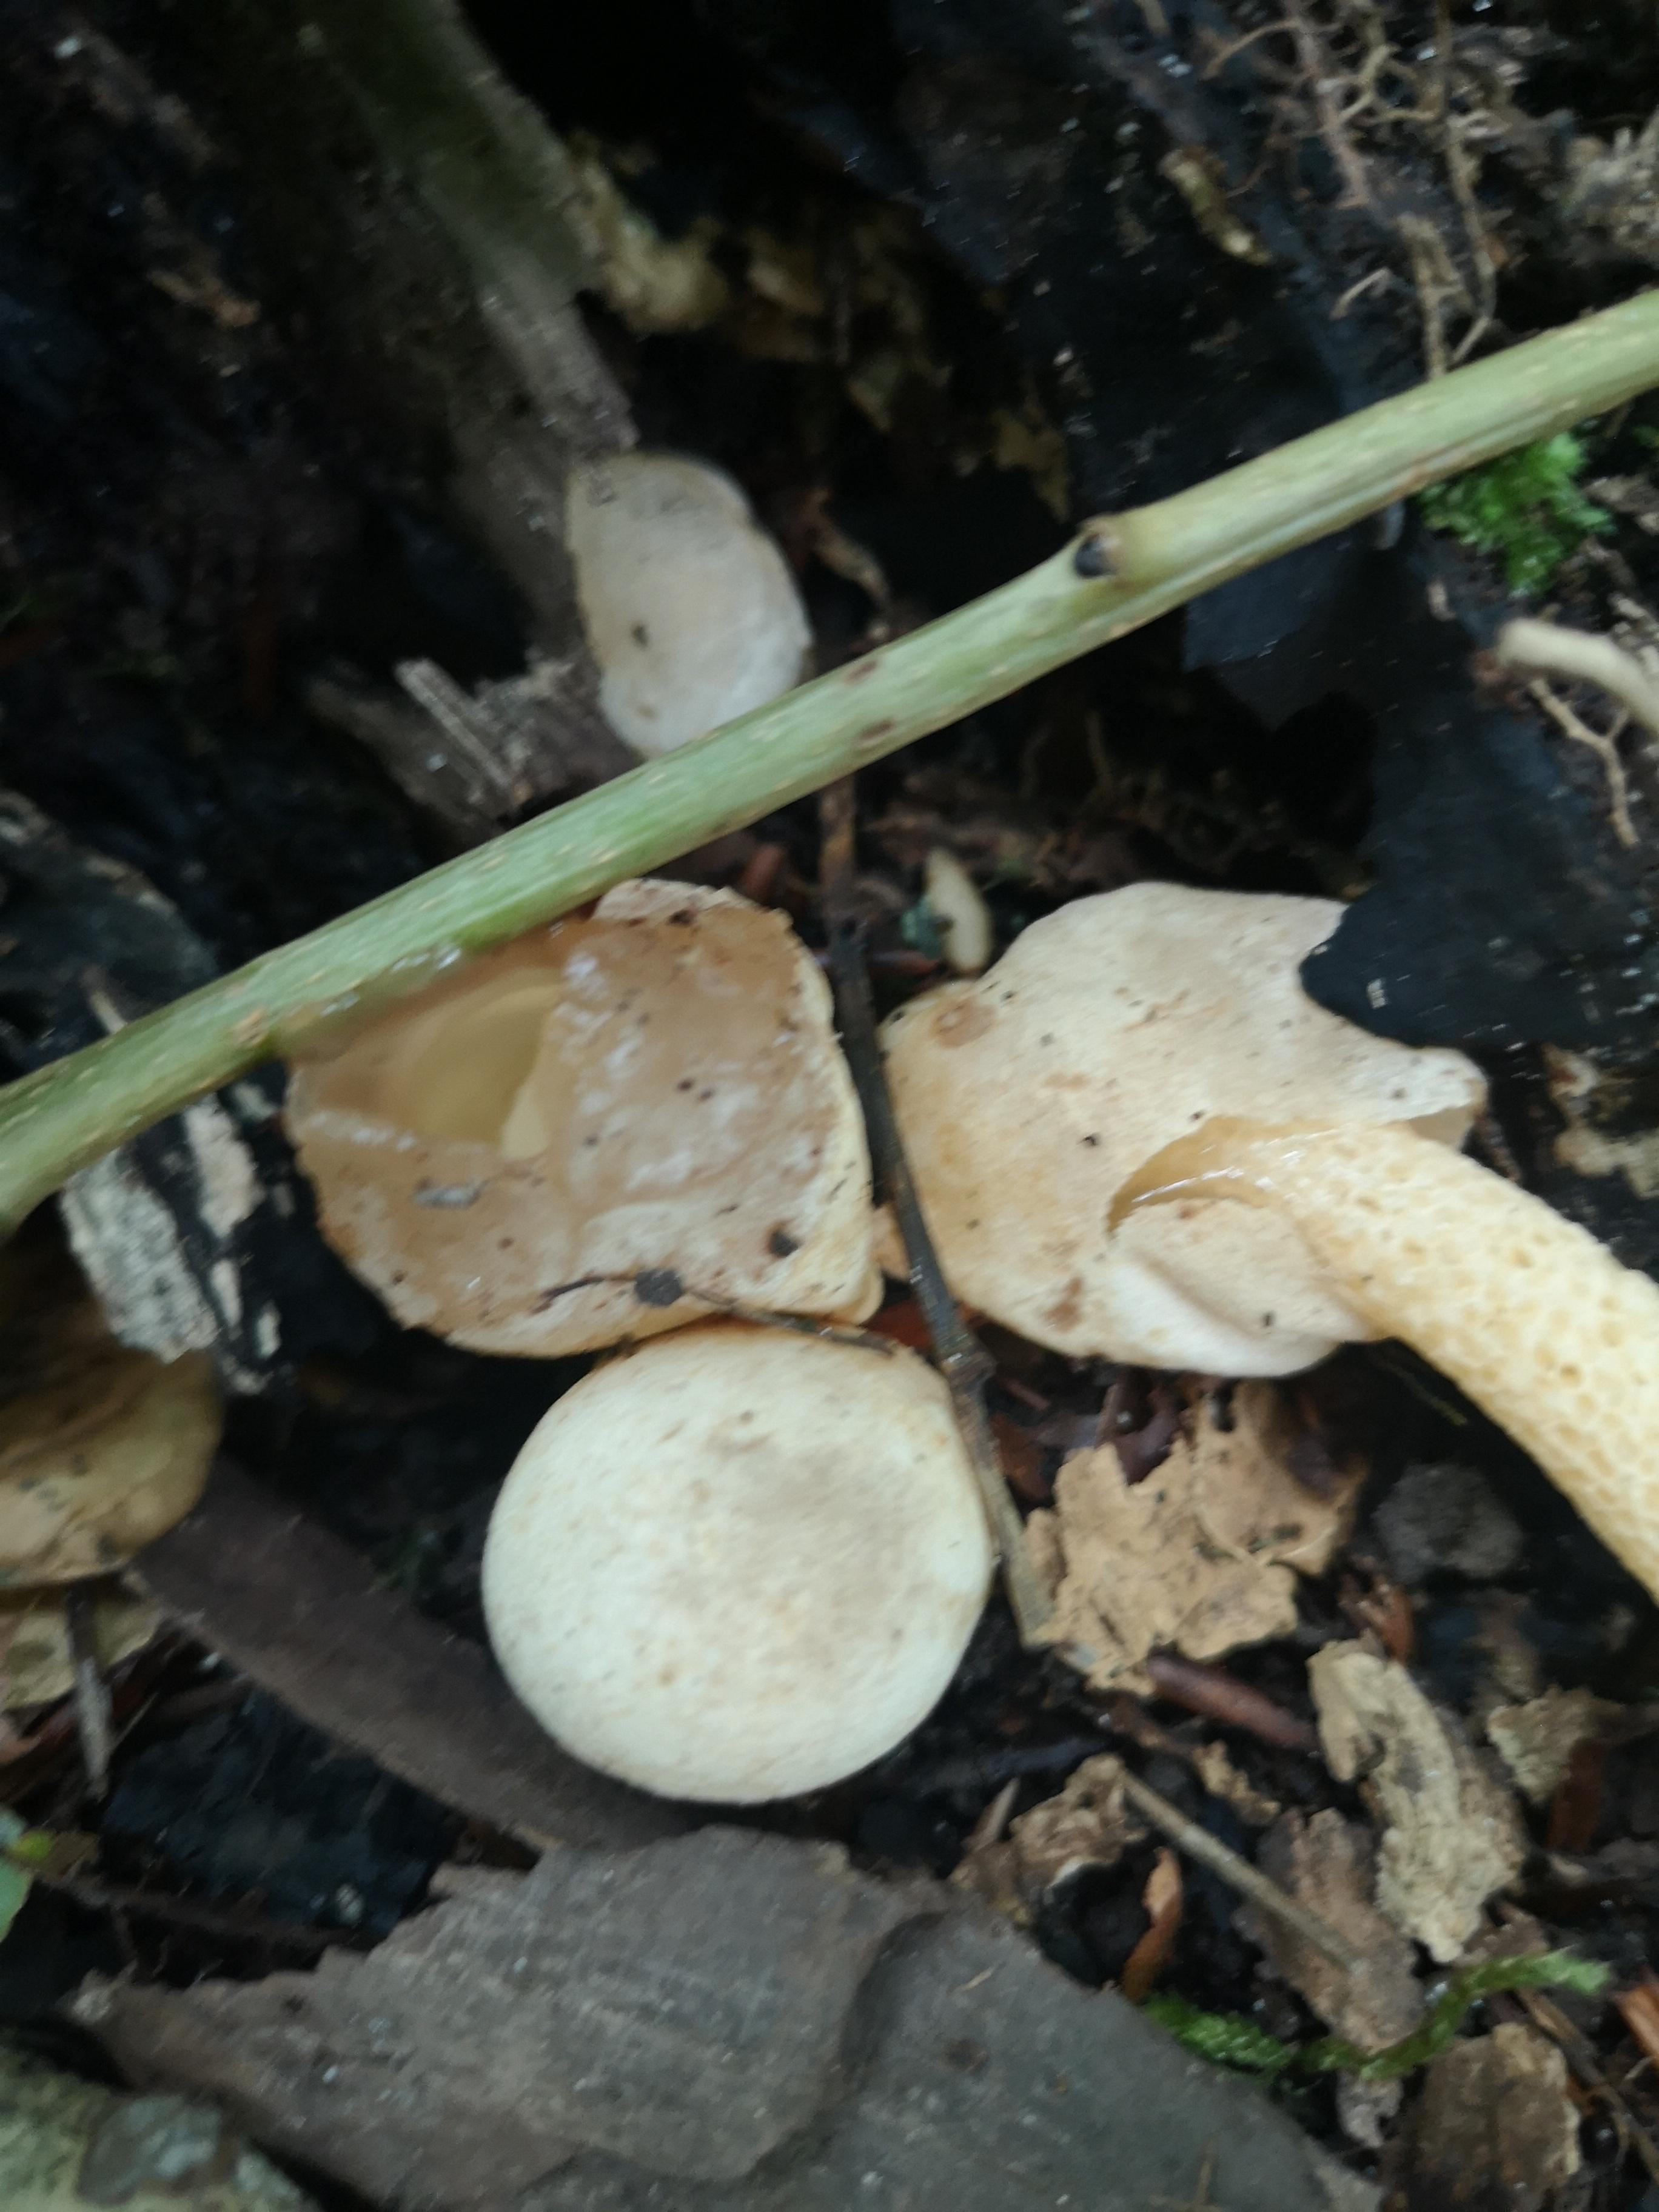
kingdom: Fungi
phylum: Basidiomycota
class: Agaricomycetes
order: Phallales
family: Phallaceae
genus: Mutinus
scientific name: Mutinus caninus
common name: hunde-stinksvamp
